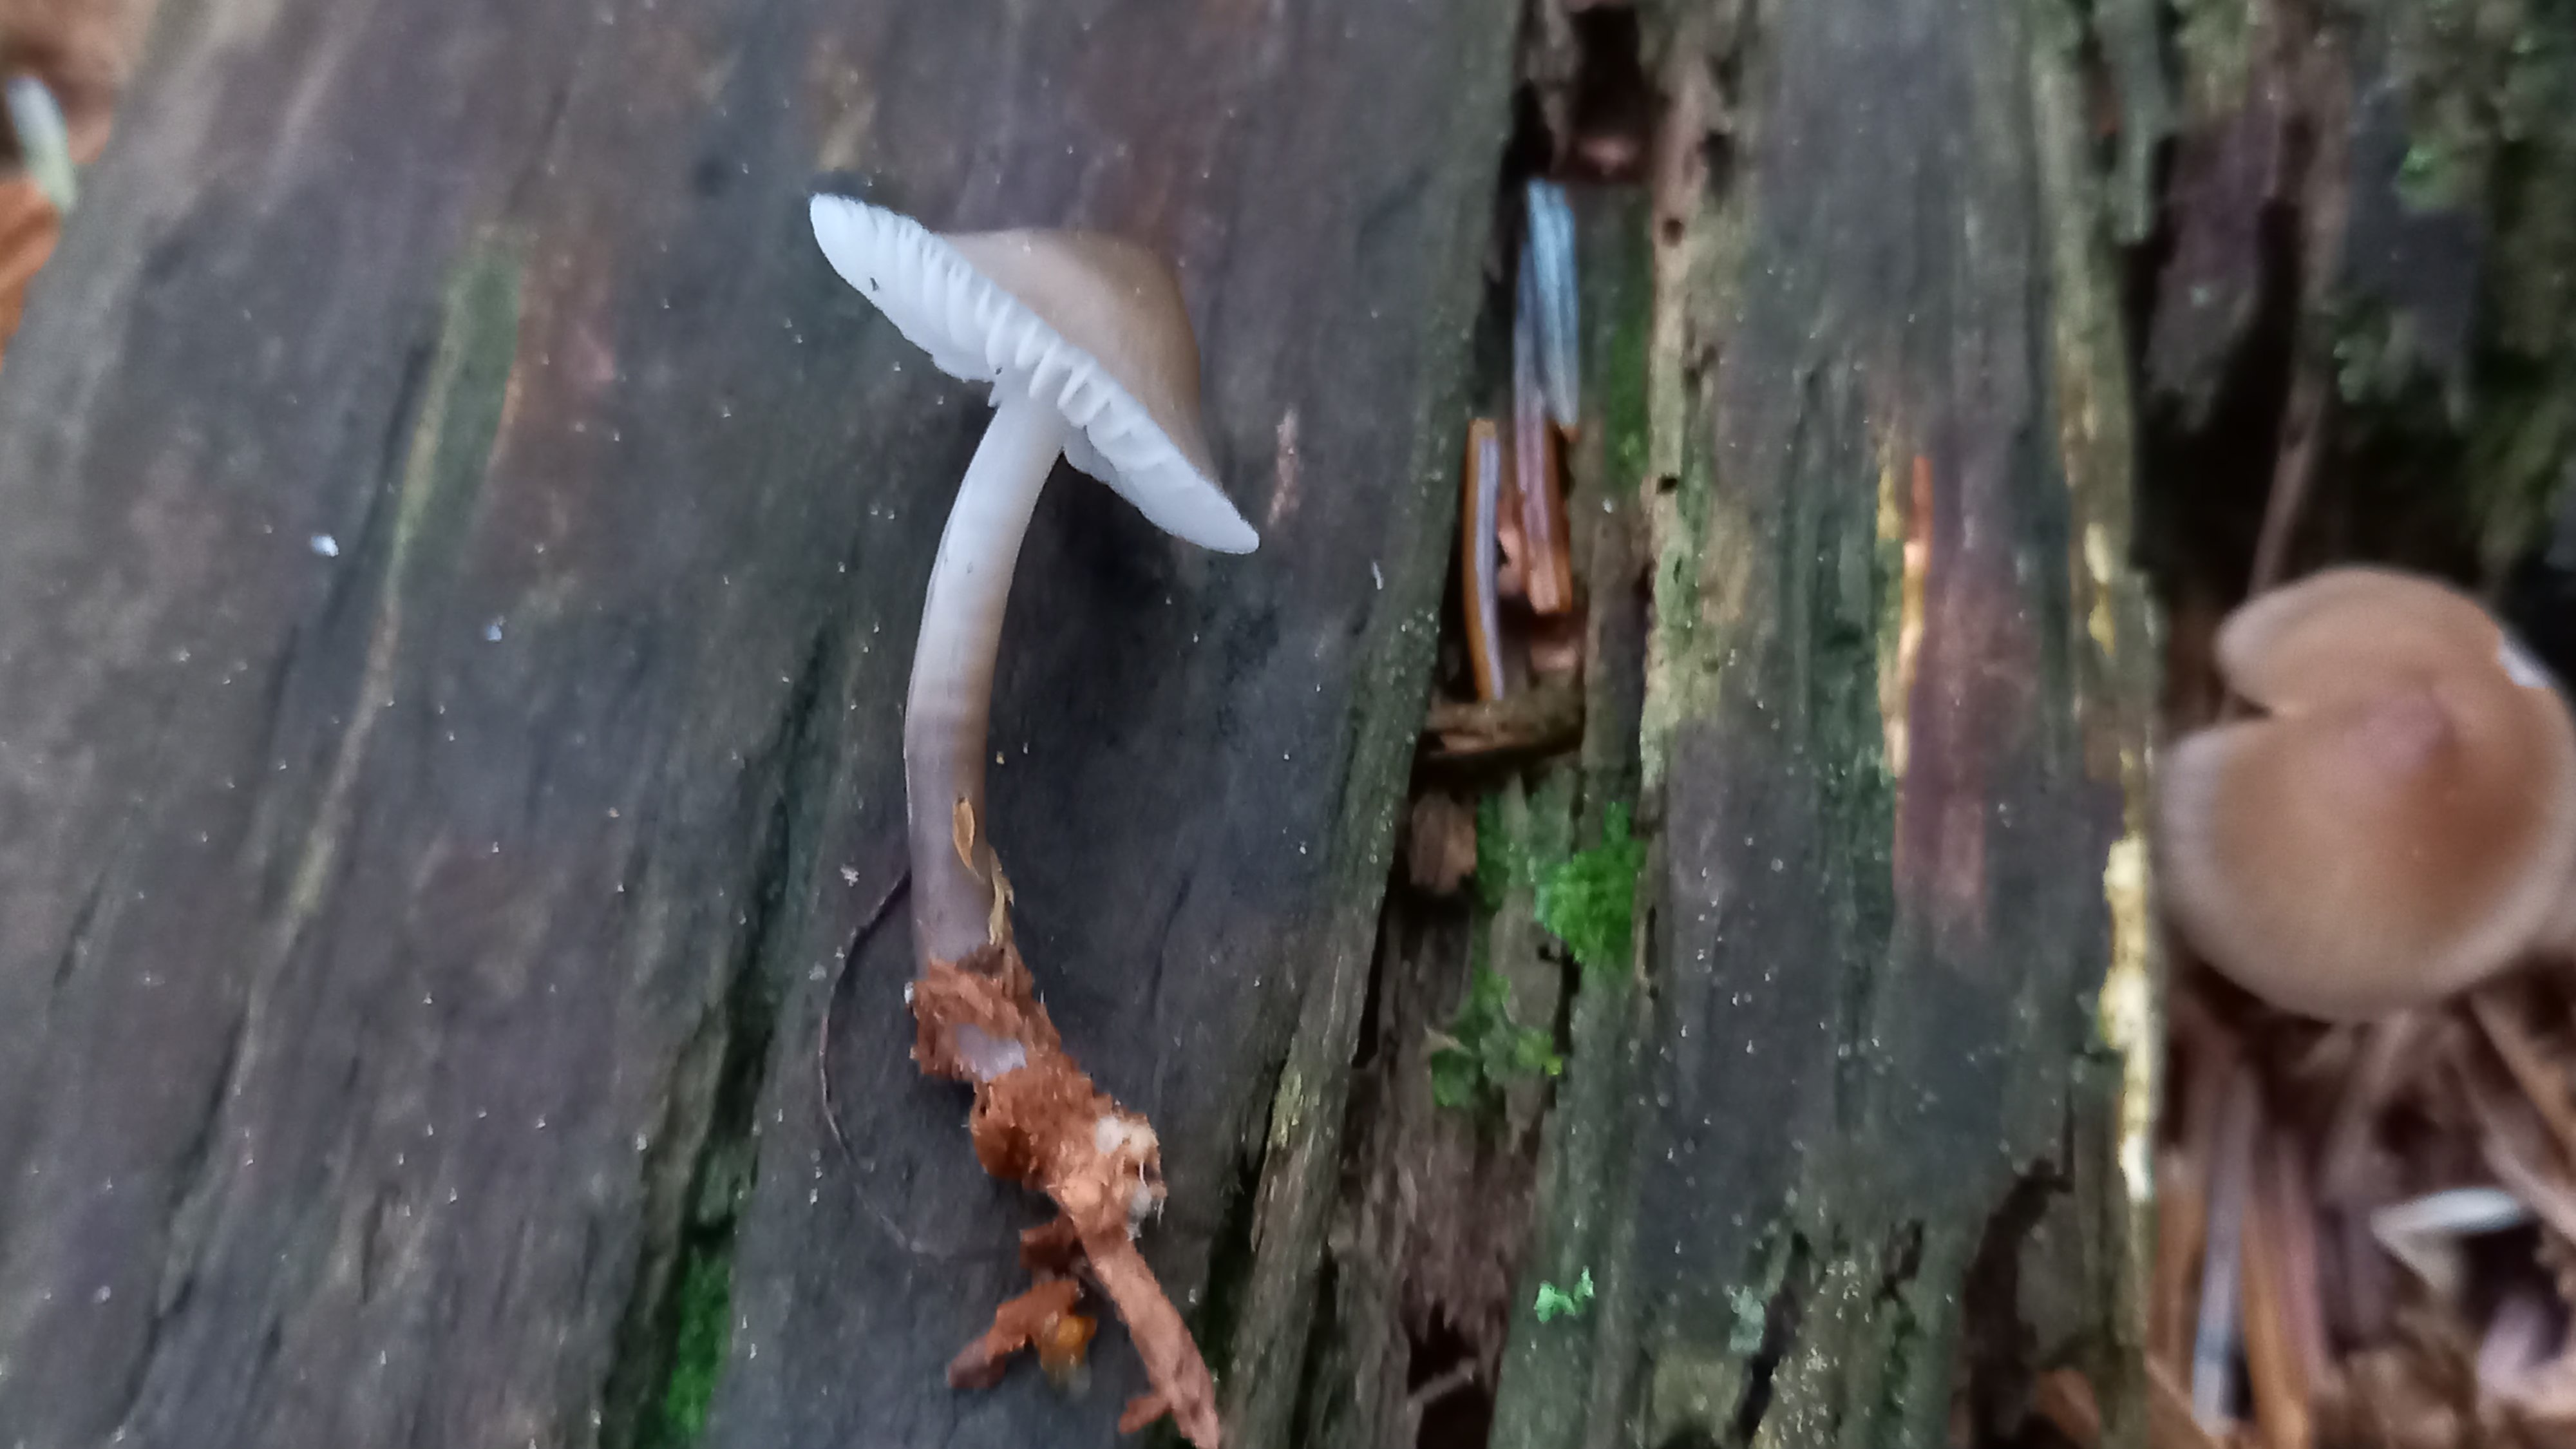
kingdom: Fungi
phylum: Basidiomycota
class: Agaricomycetes
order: Agaricales
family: Mycenaceae
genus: Mycena
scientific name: Mycena galericulata
